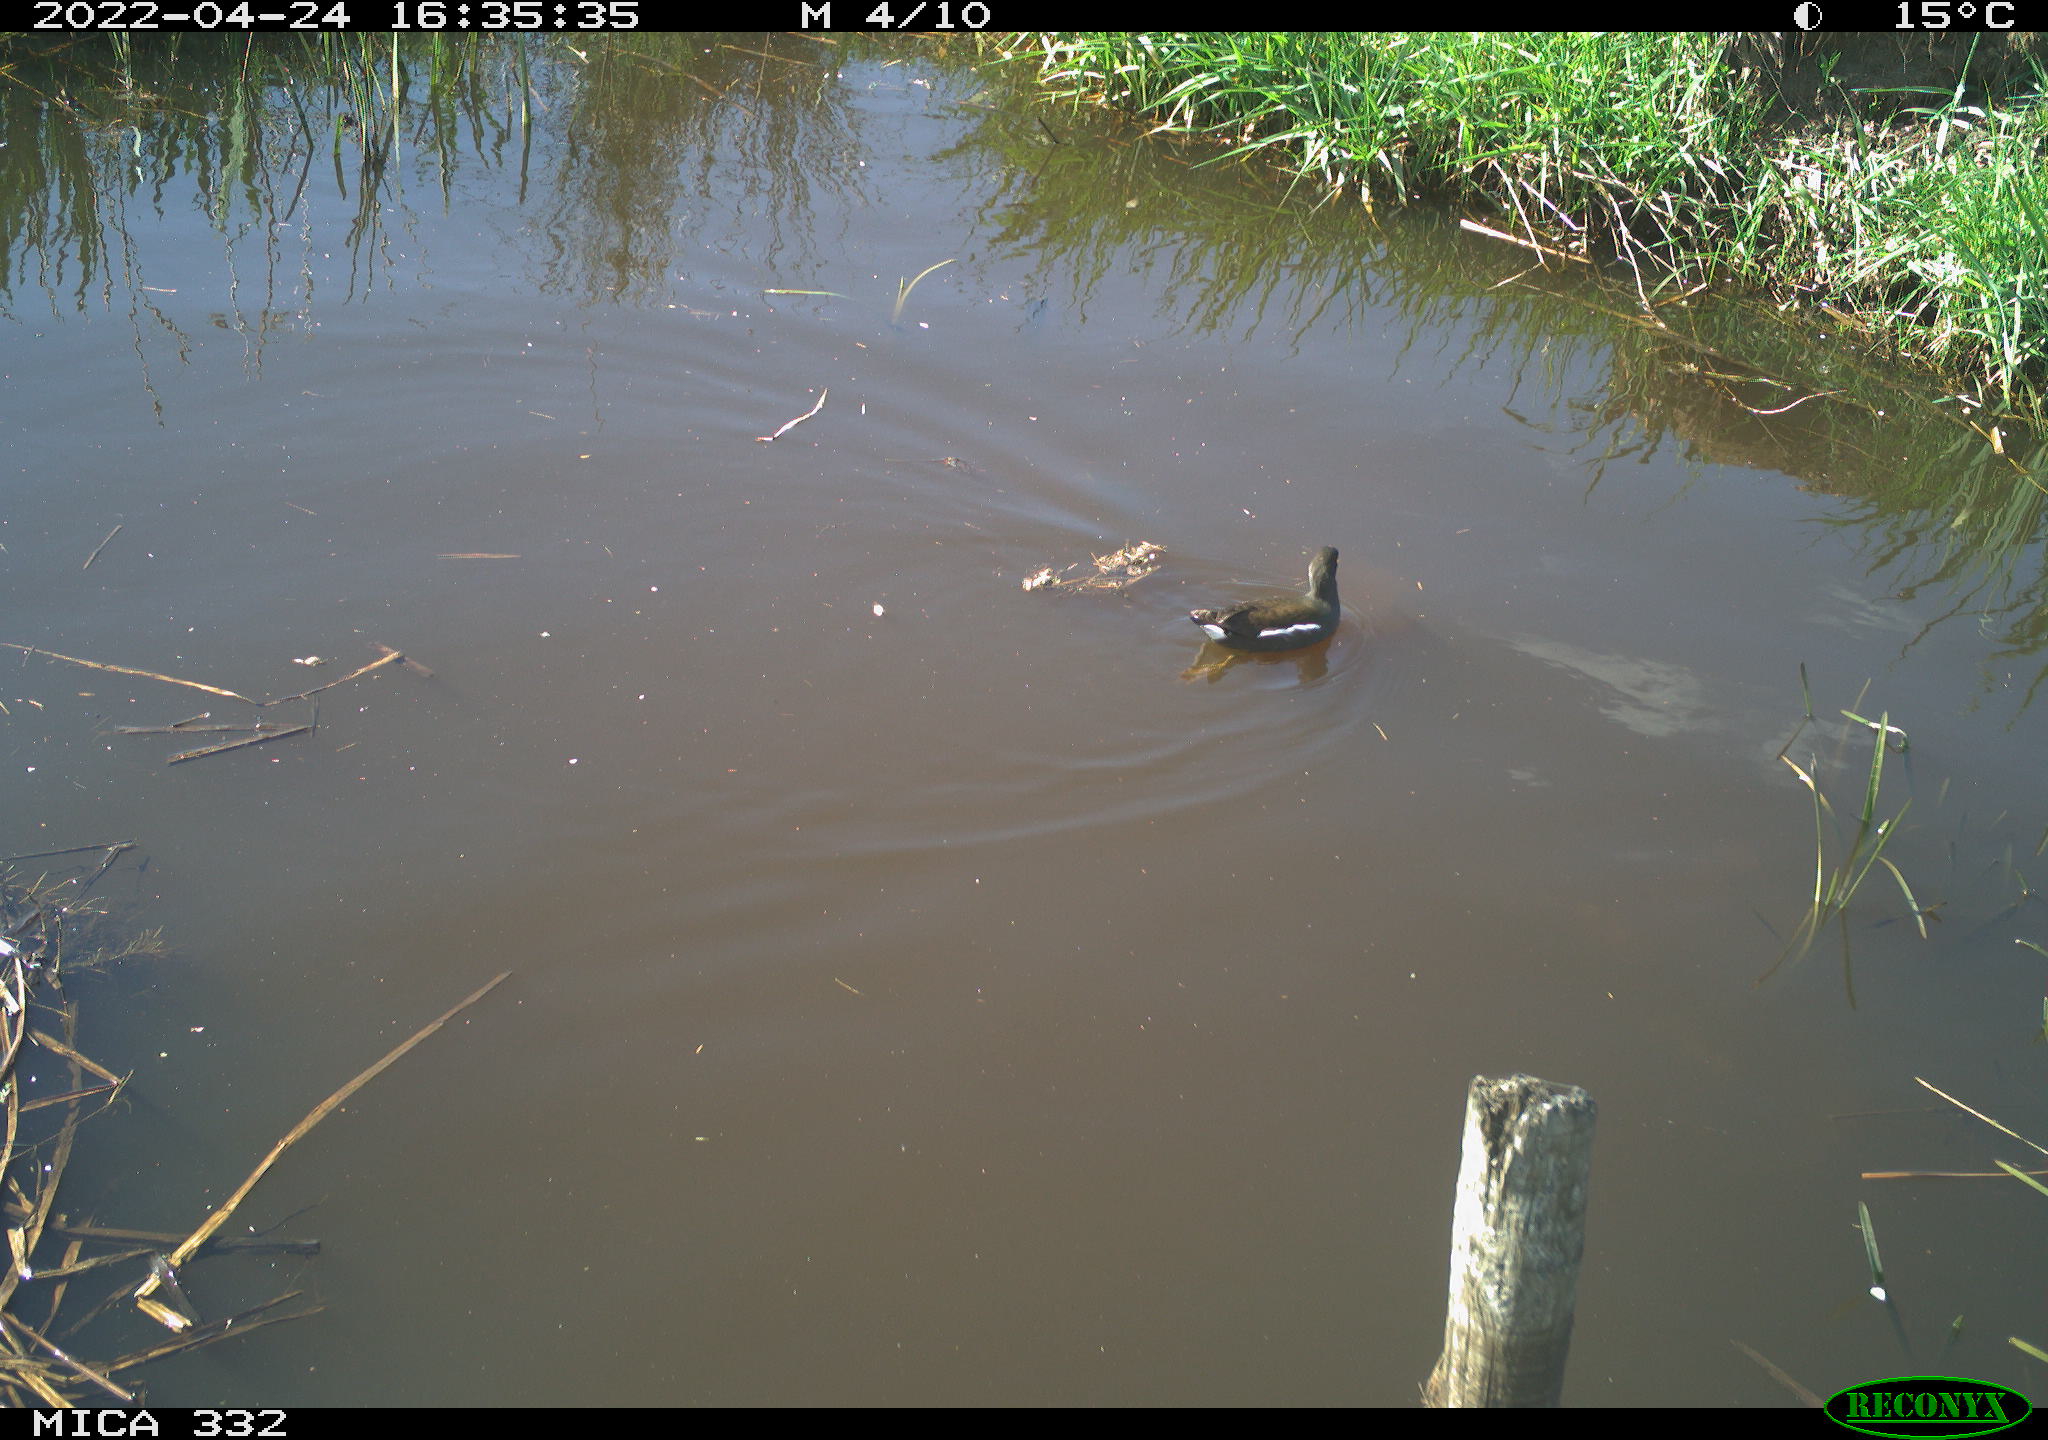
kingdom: Animalia
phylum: Chordata
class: Aves
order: Gruiformes
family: Rallidae
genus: Gallinula
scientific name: Gallinula chloropus
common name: Common moorhen
